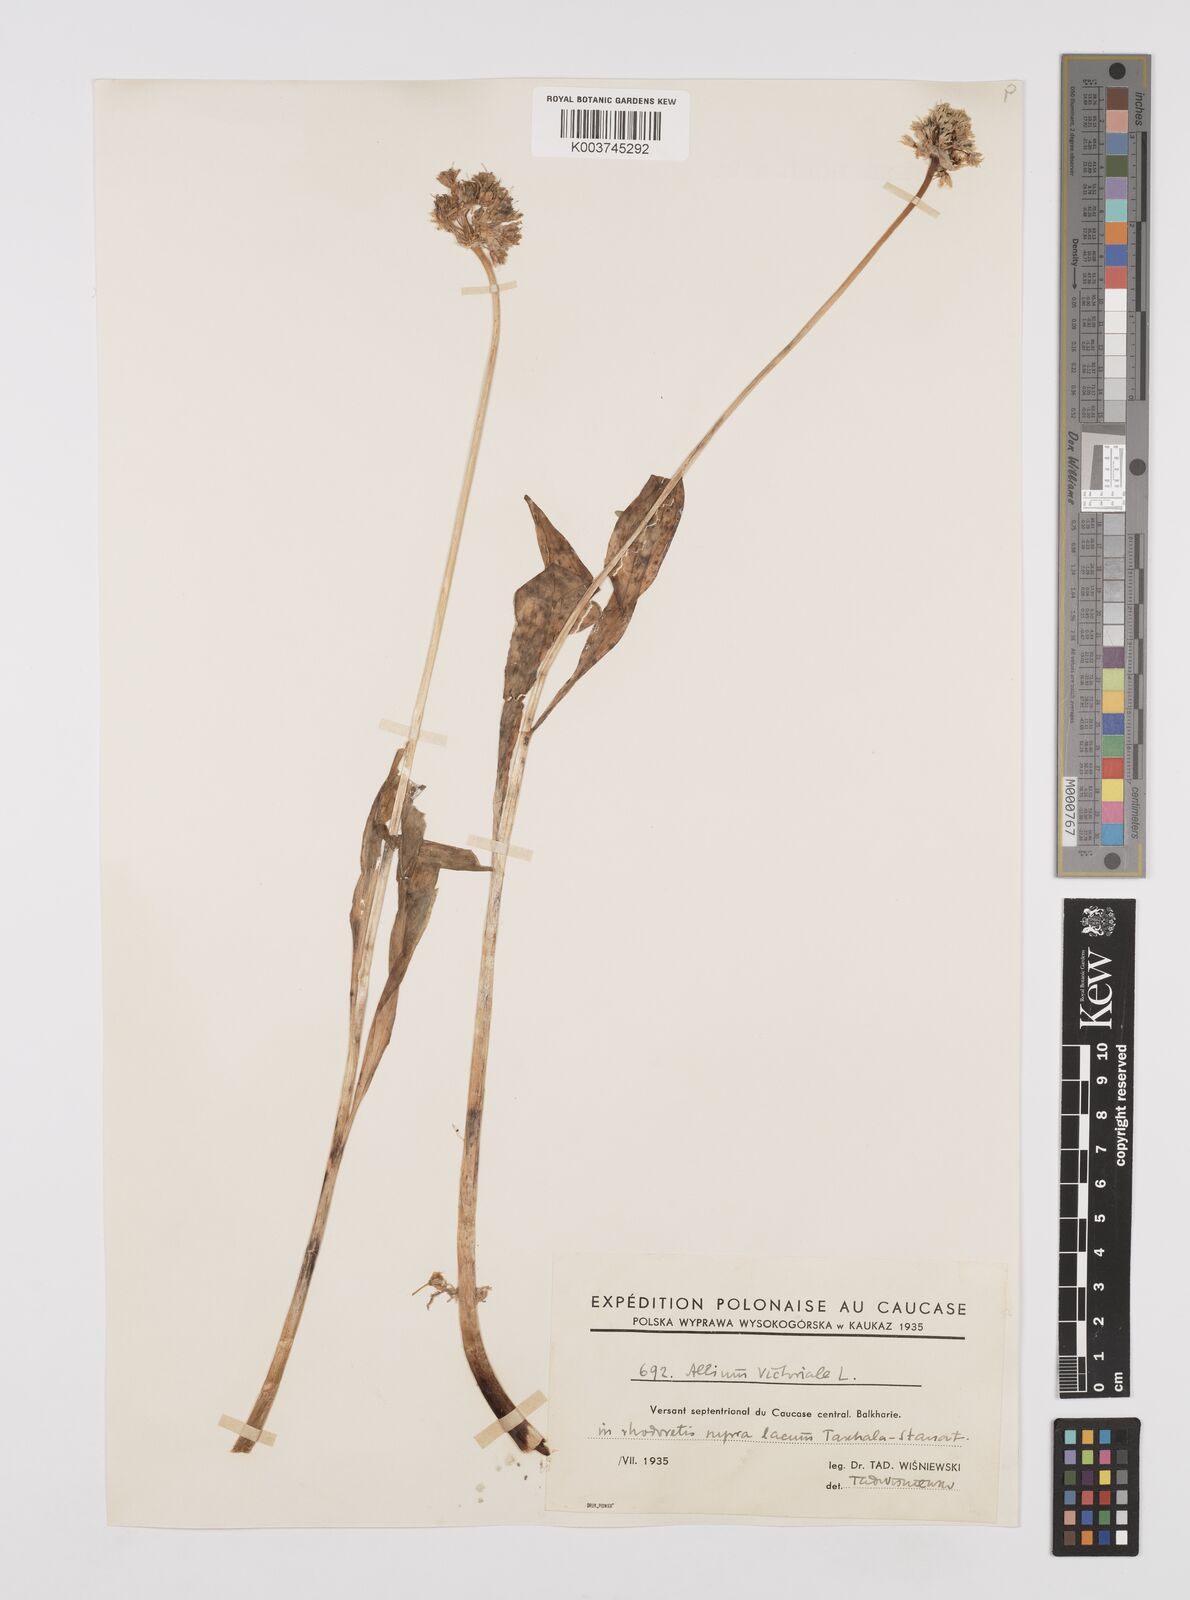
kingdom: Plantae
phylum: Tracheophyta
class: Liliopsida
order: Asparagales
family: Amaryllidaceae
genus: Allium
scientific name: Allium victorialis
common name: Alpine leek
